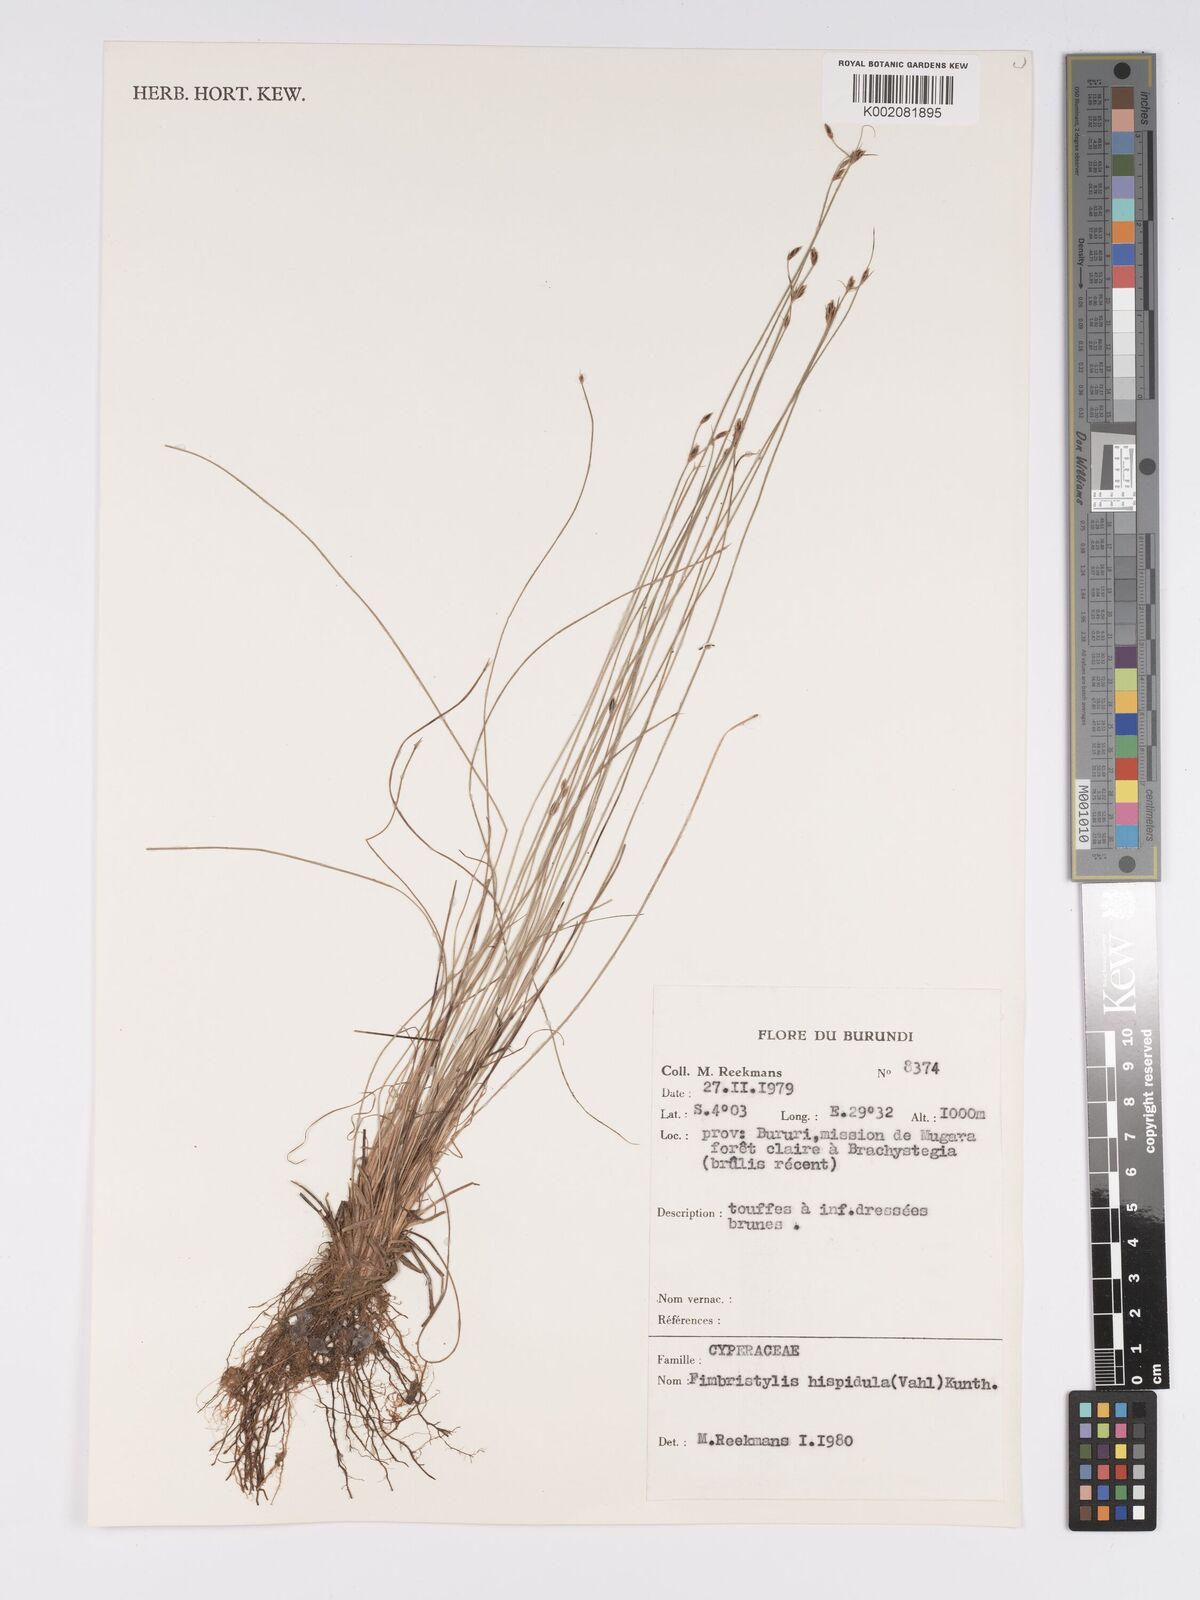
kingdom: Plantae
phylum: Tracheophyta
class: Liliopsida
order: Poales
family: Cyperaceae
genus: Bulbostylis
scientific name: Bulbostylis hispidula
